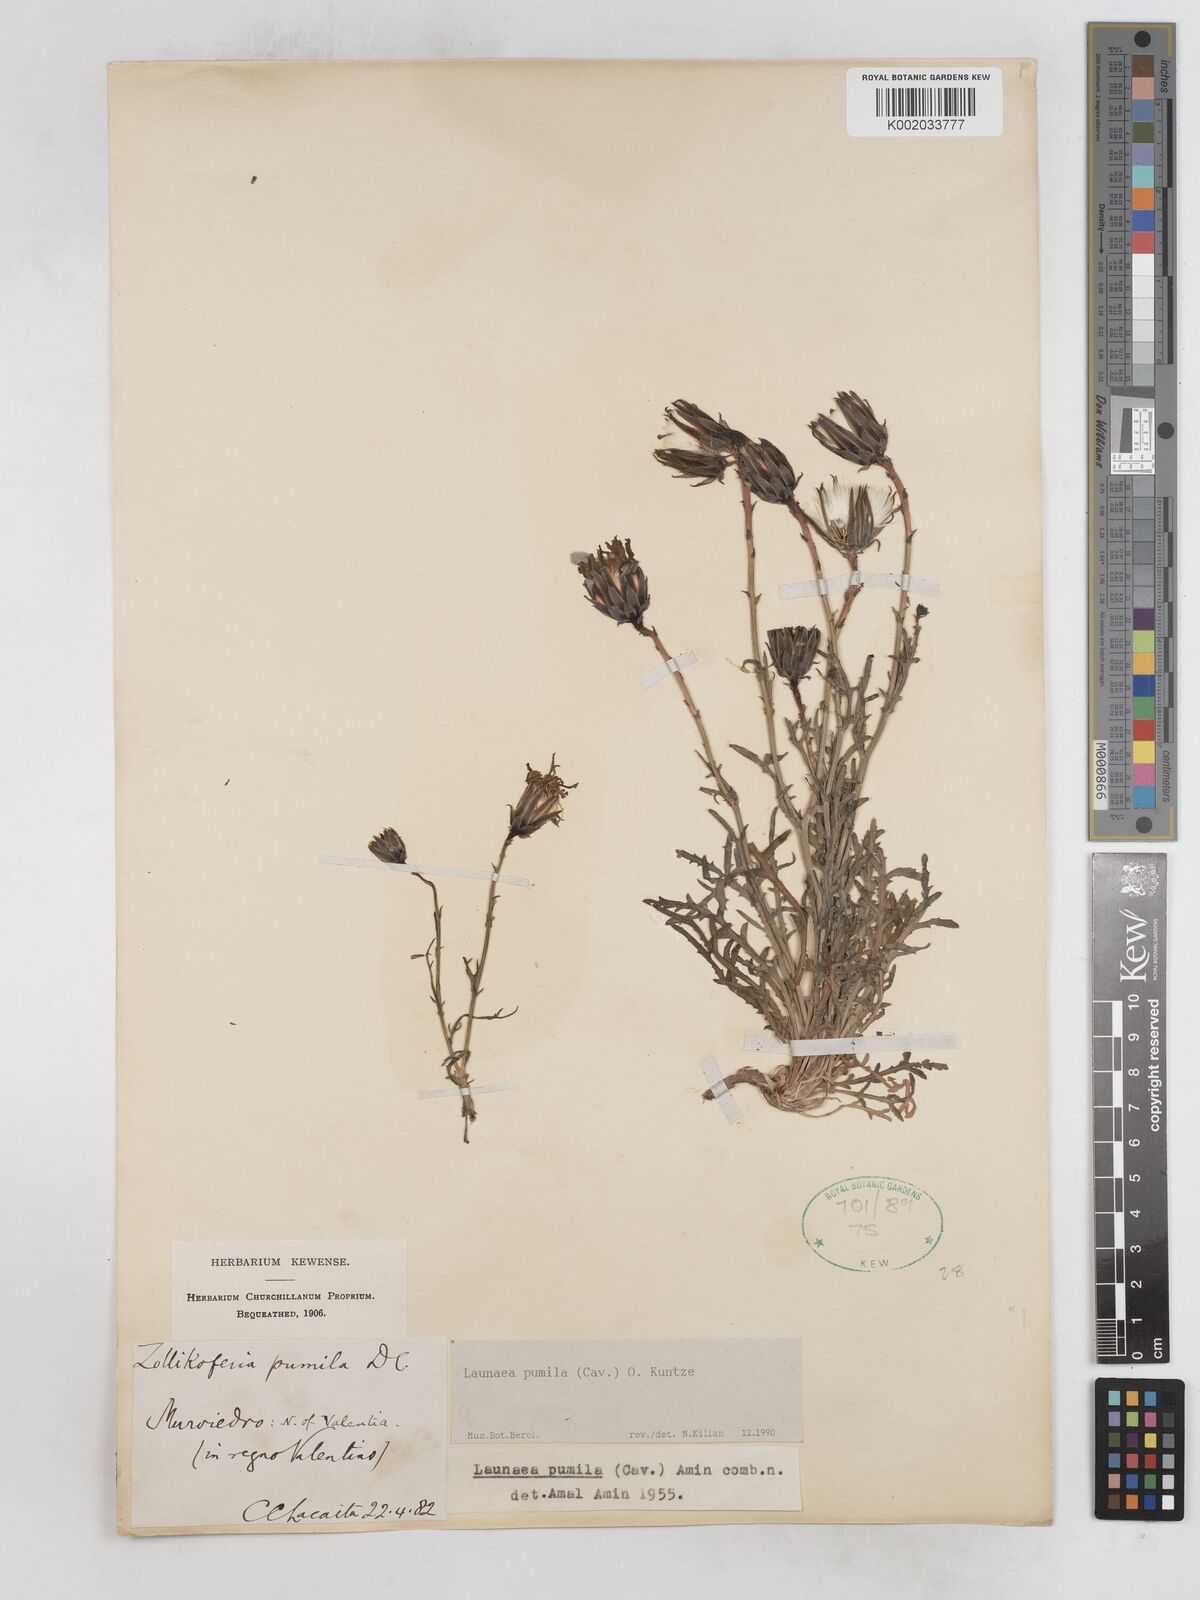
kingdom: Plantae
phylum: Tracheophyta
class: Magnoliopsida
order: Asterales
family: Asteraceae
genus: Launaea
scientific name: Launaea pumila
